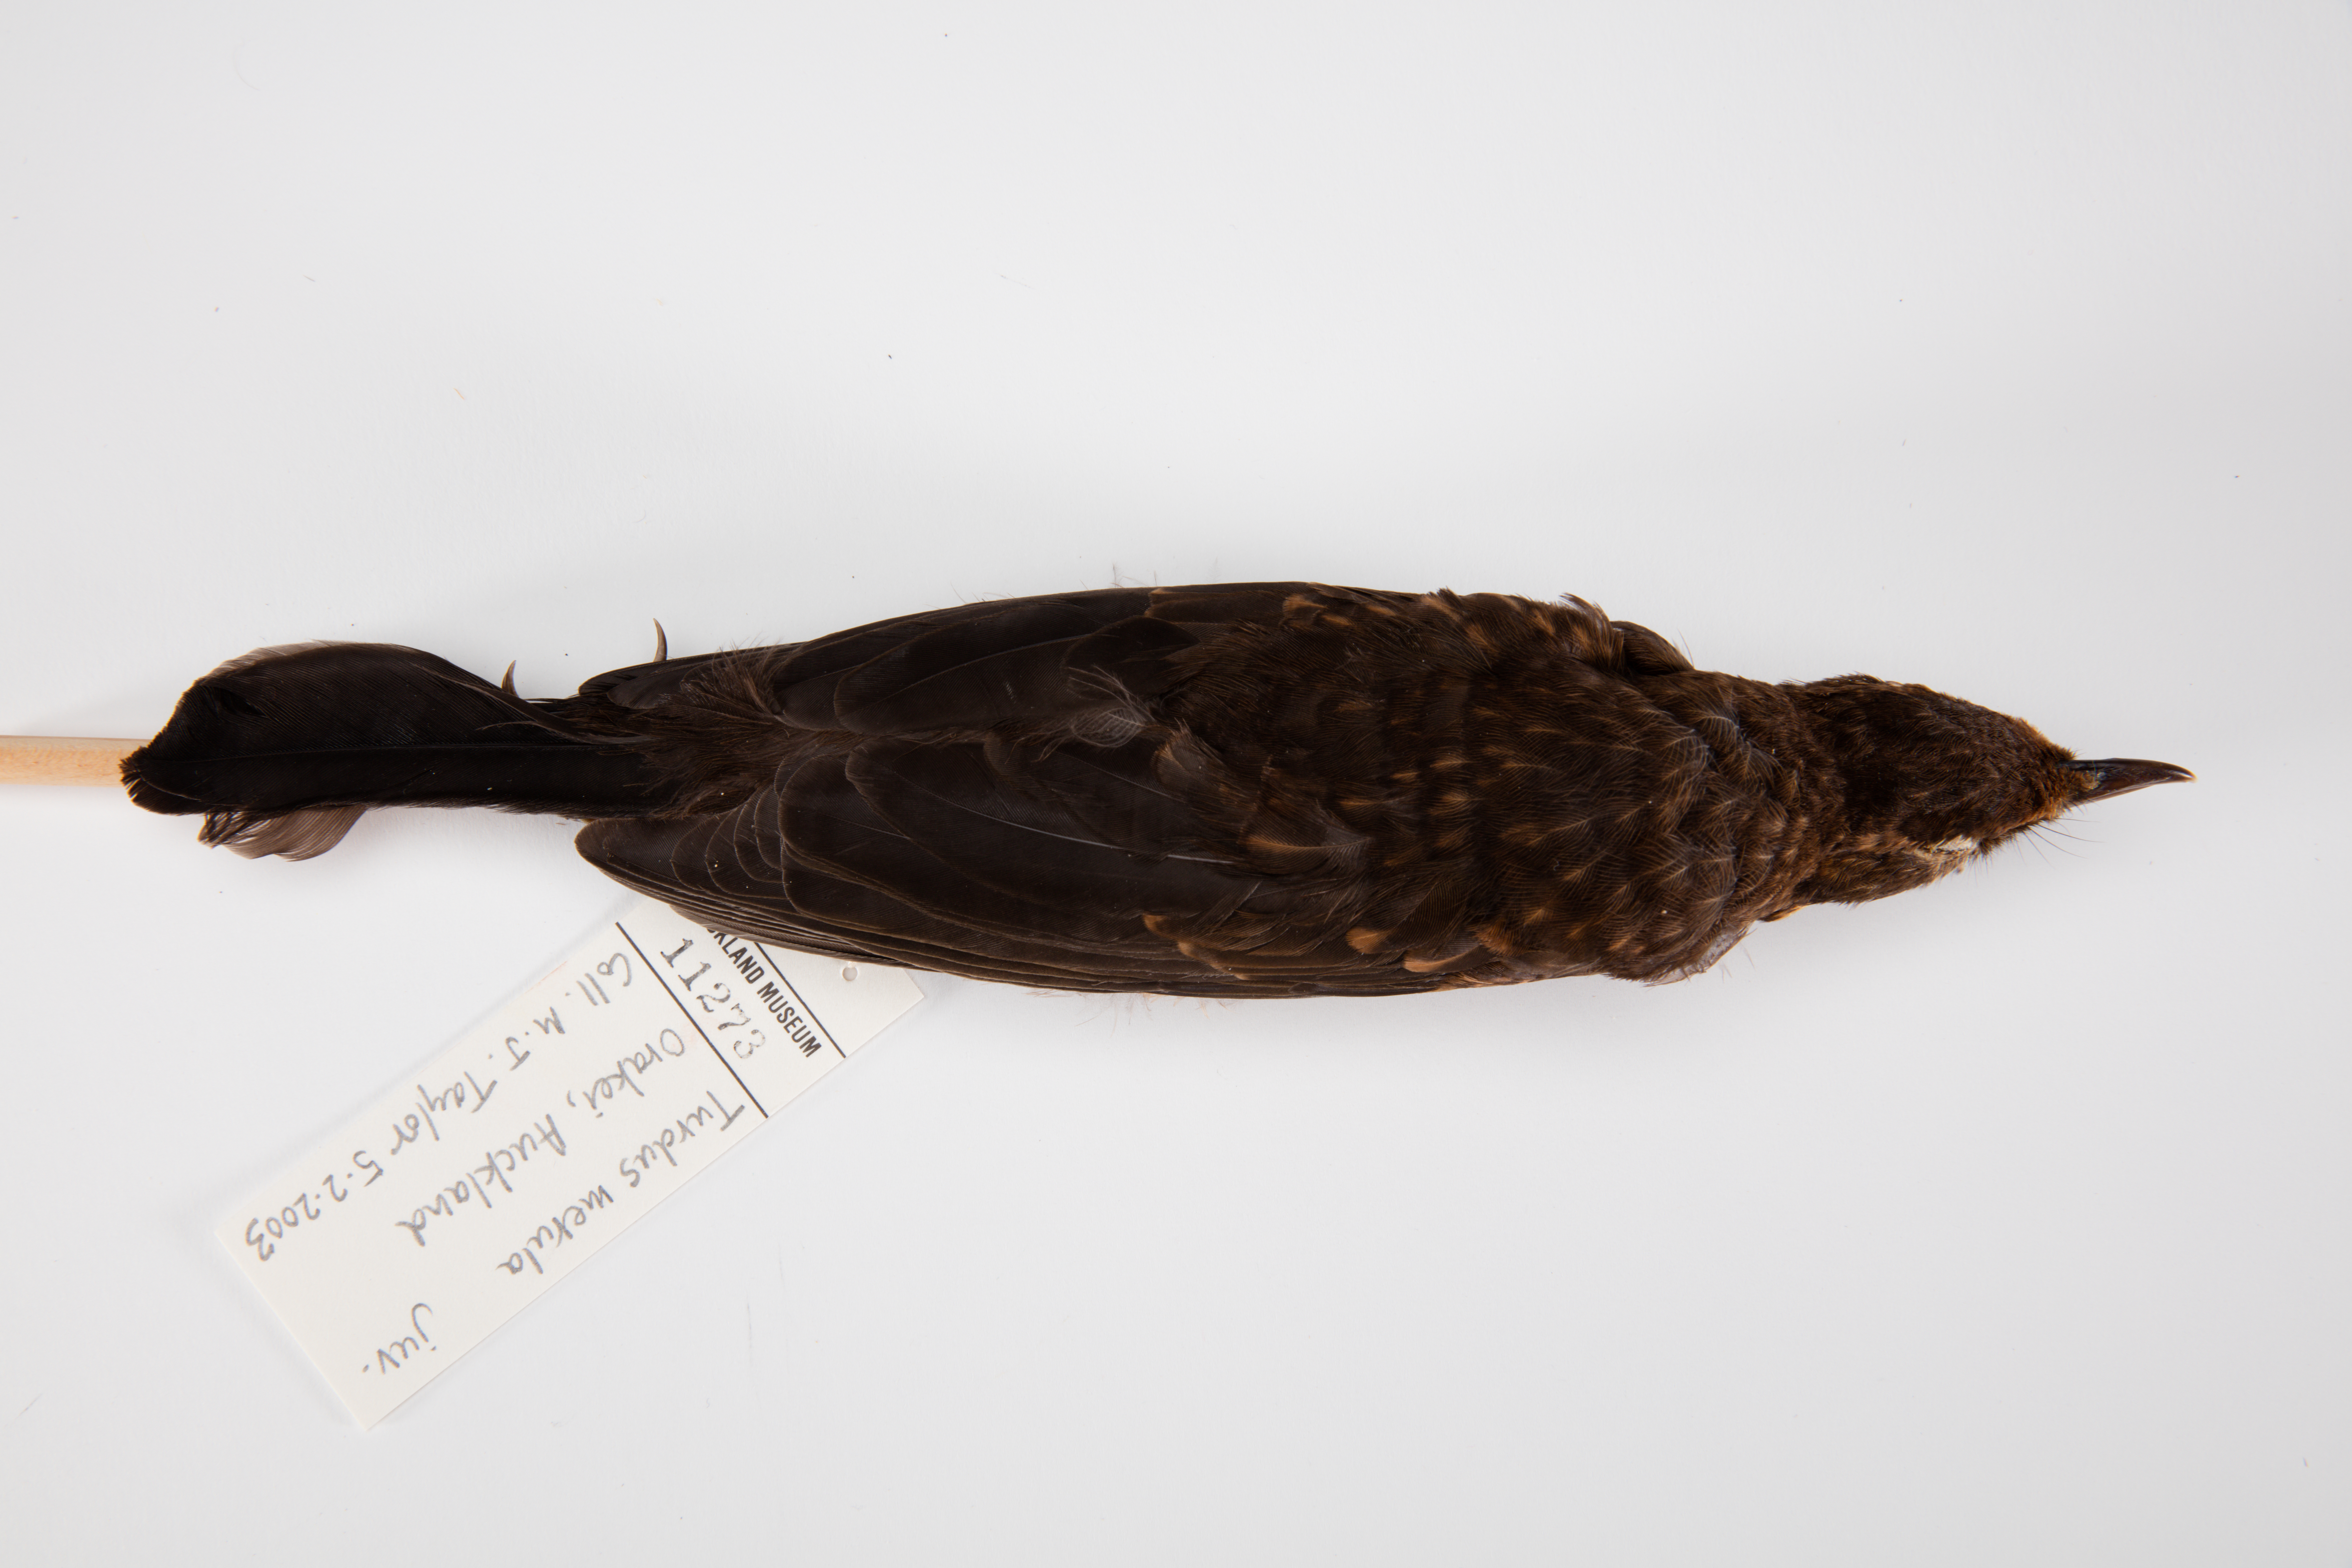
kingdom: Animalia
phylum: Chordata
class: Aves
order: Passeriformes
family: Turdidae
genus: Turdus
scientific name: Turdus merula
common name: Common blackbird
